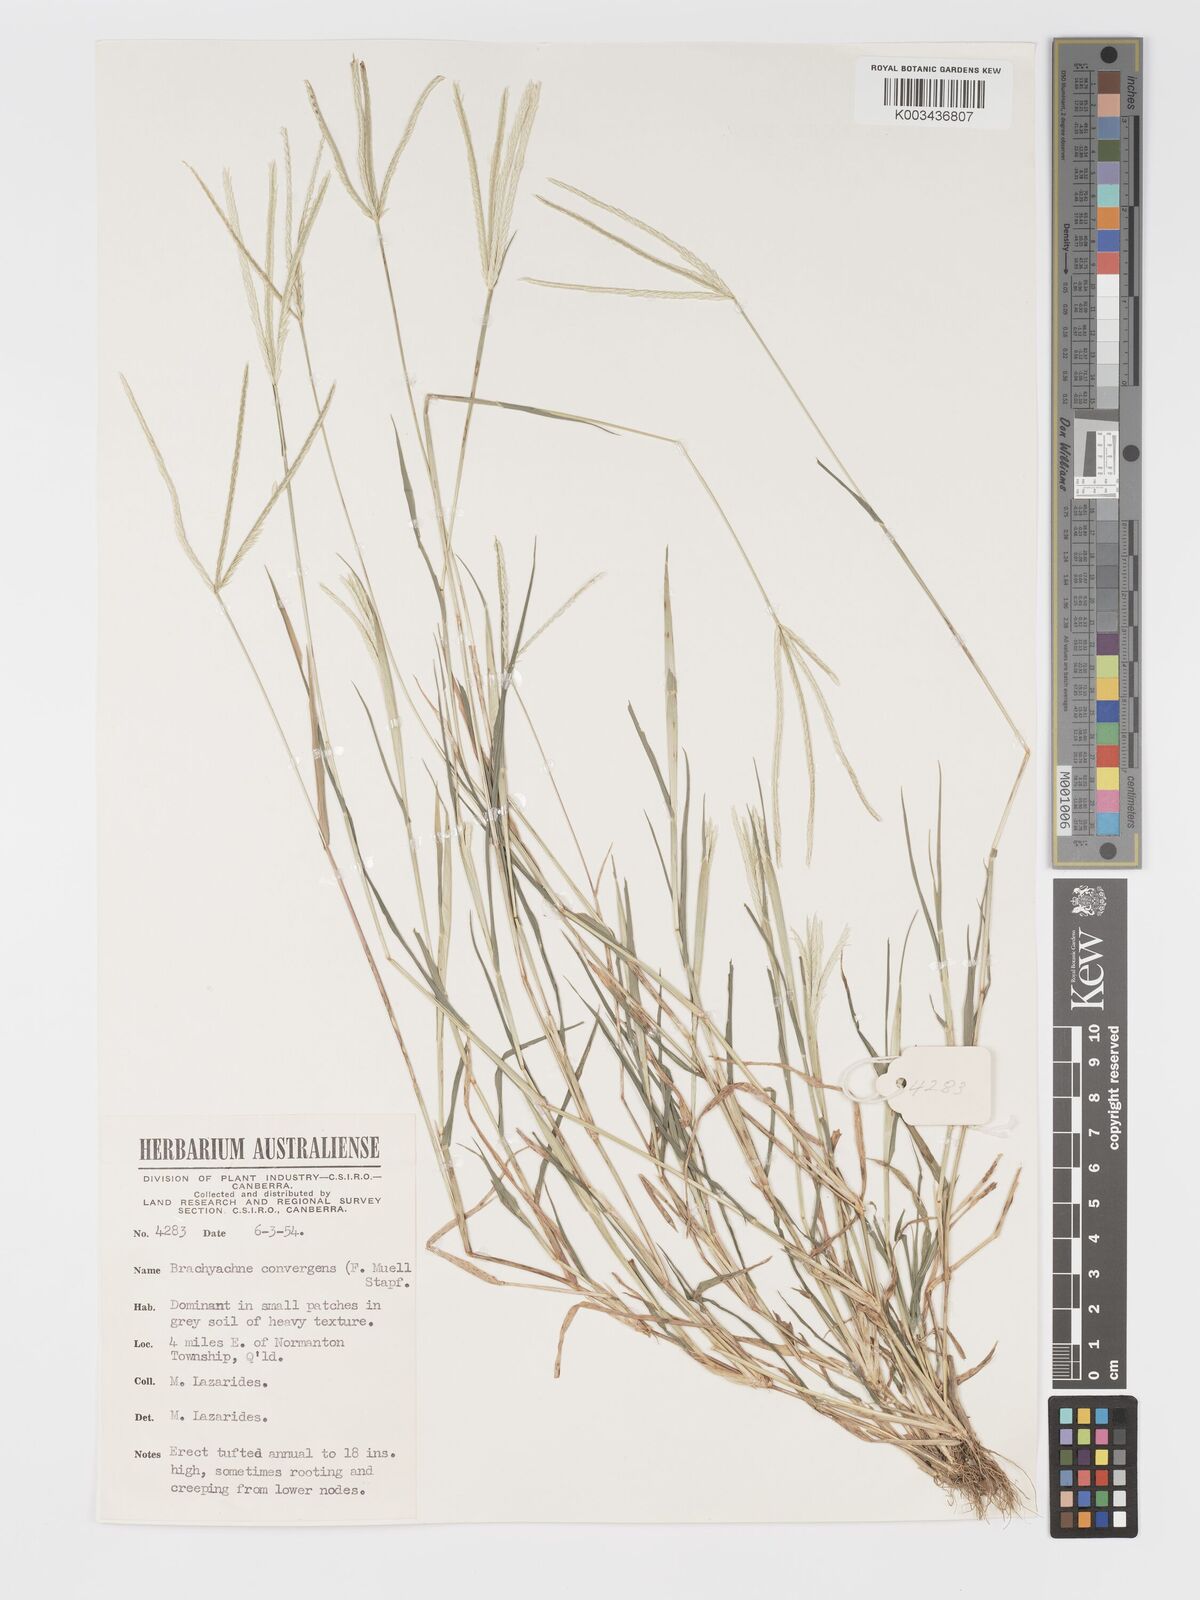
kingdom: Plantae
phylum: Tracheophyta
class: Liliopsida
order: Poales
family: Poaceae
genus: Cynodon
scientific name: Cynodon convergens
